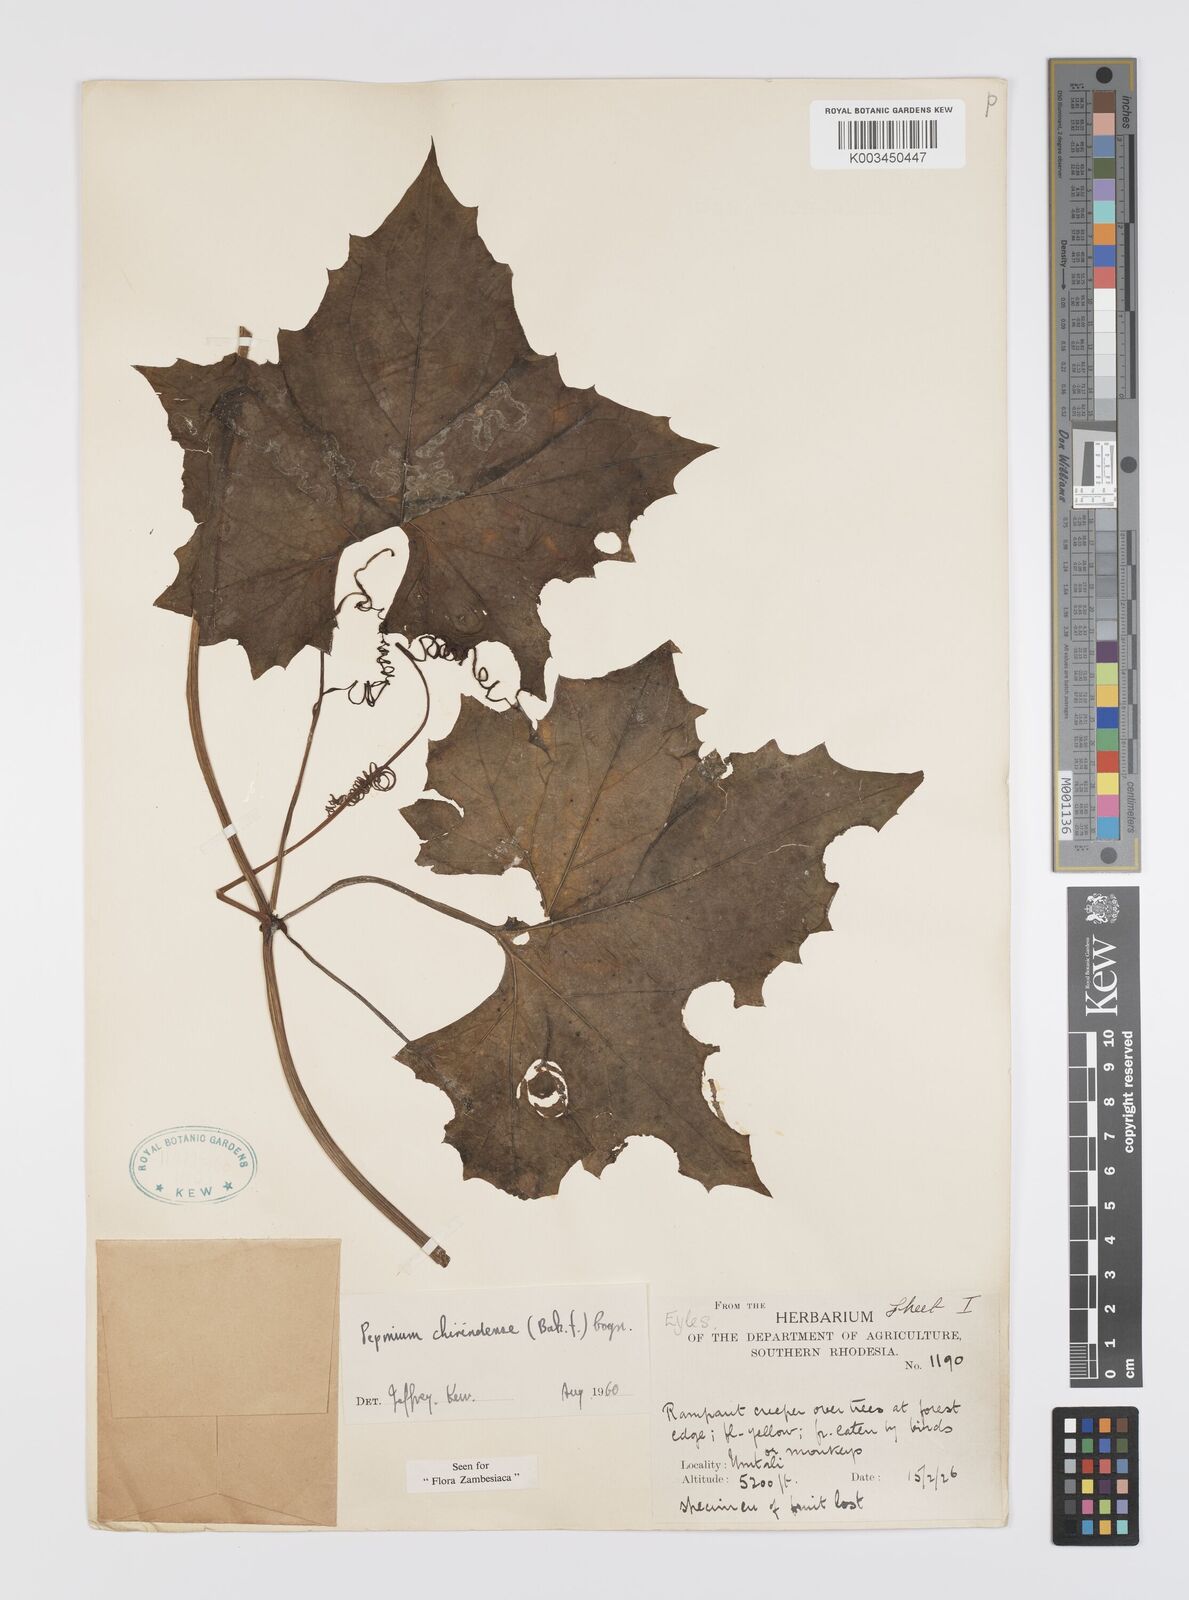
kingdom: Plantae
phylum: Tracheophyta
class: Magnoliopsida
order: Cucurbitales
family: Cucurbitaceae
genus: Peponium
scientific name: Peponium chirindense
